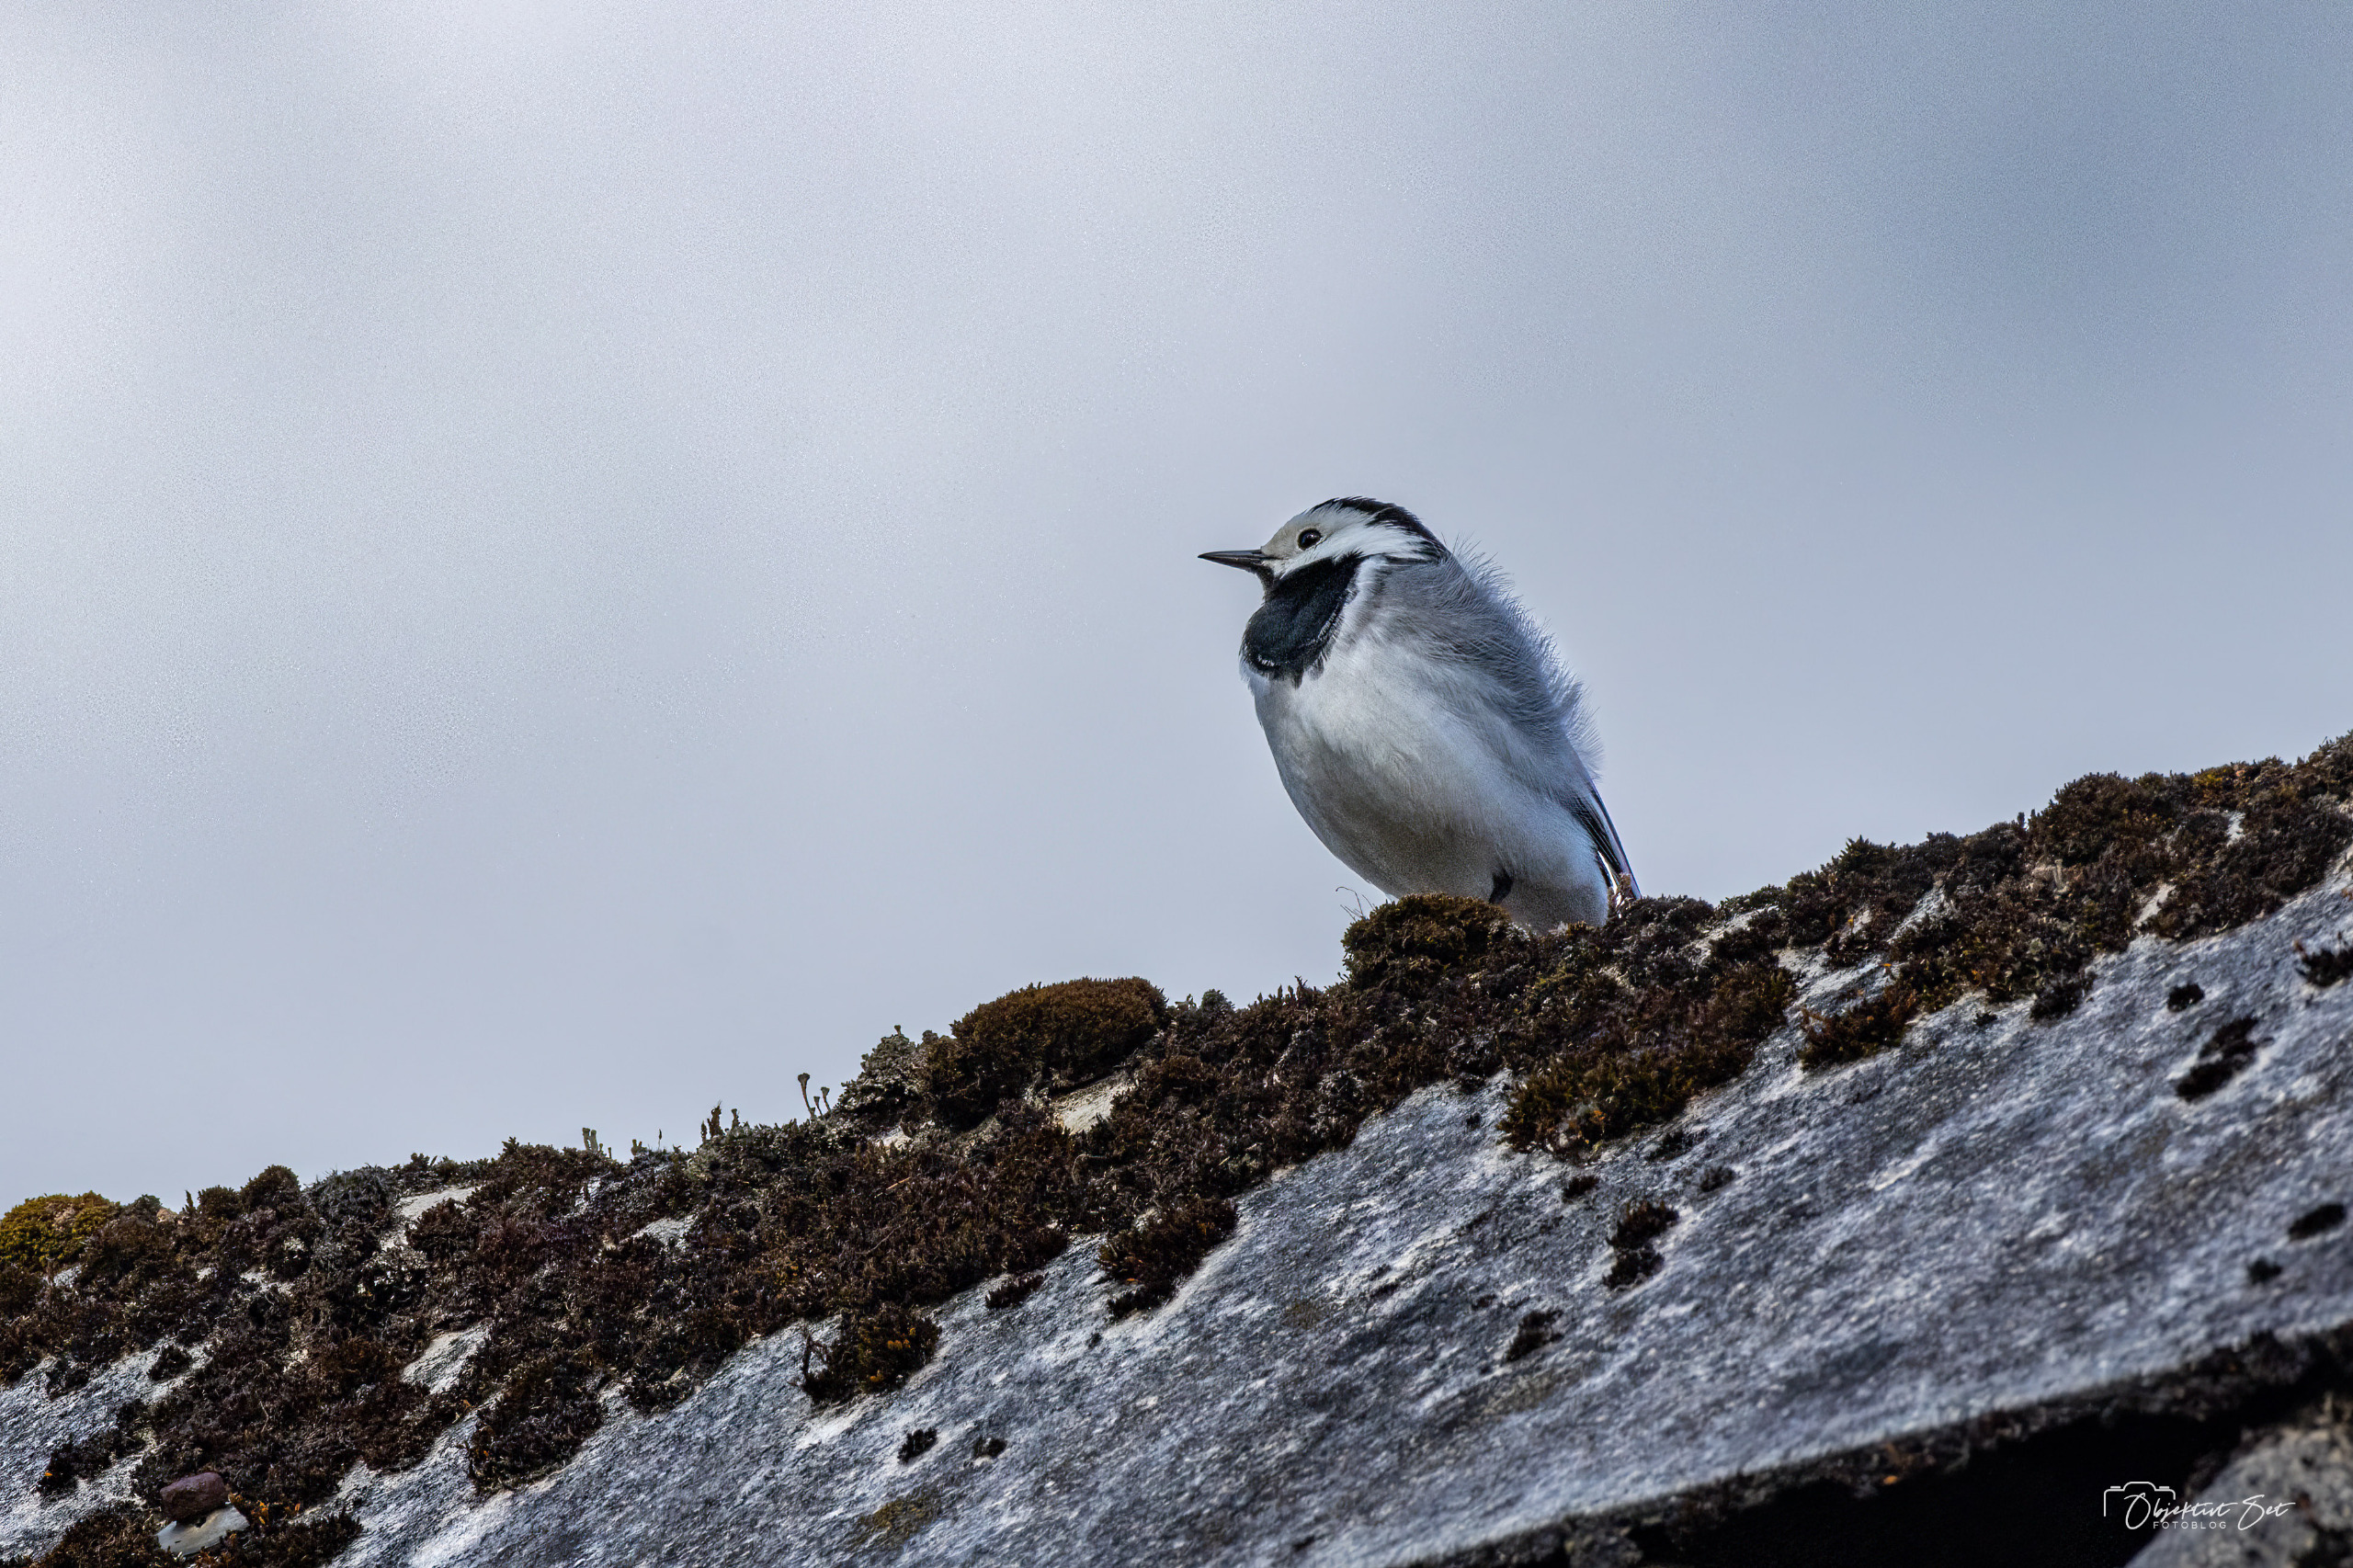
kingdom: Animalia
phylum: Chordata
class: Aves
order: Passeriformes
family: Motacillidae
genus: Motacilla
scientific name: Motacilla alba
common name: Hvid vipstjert
